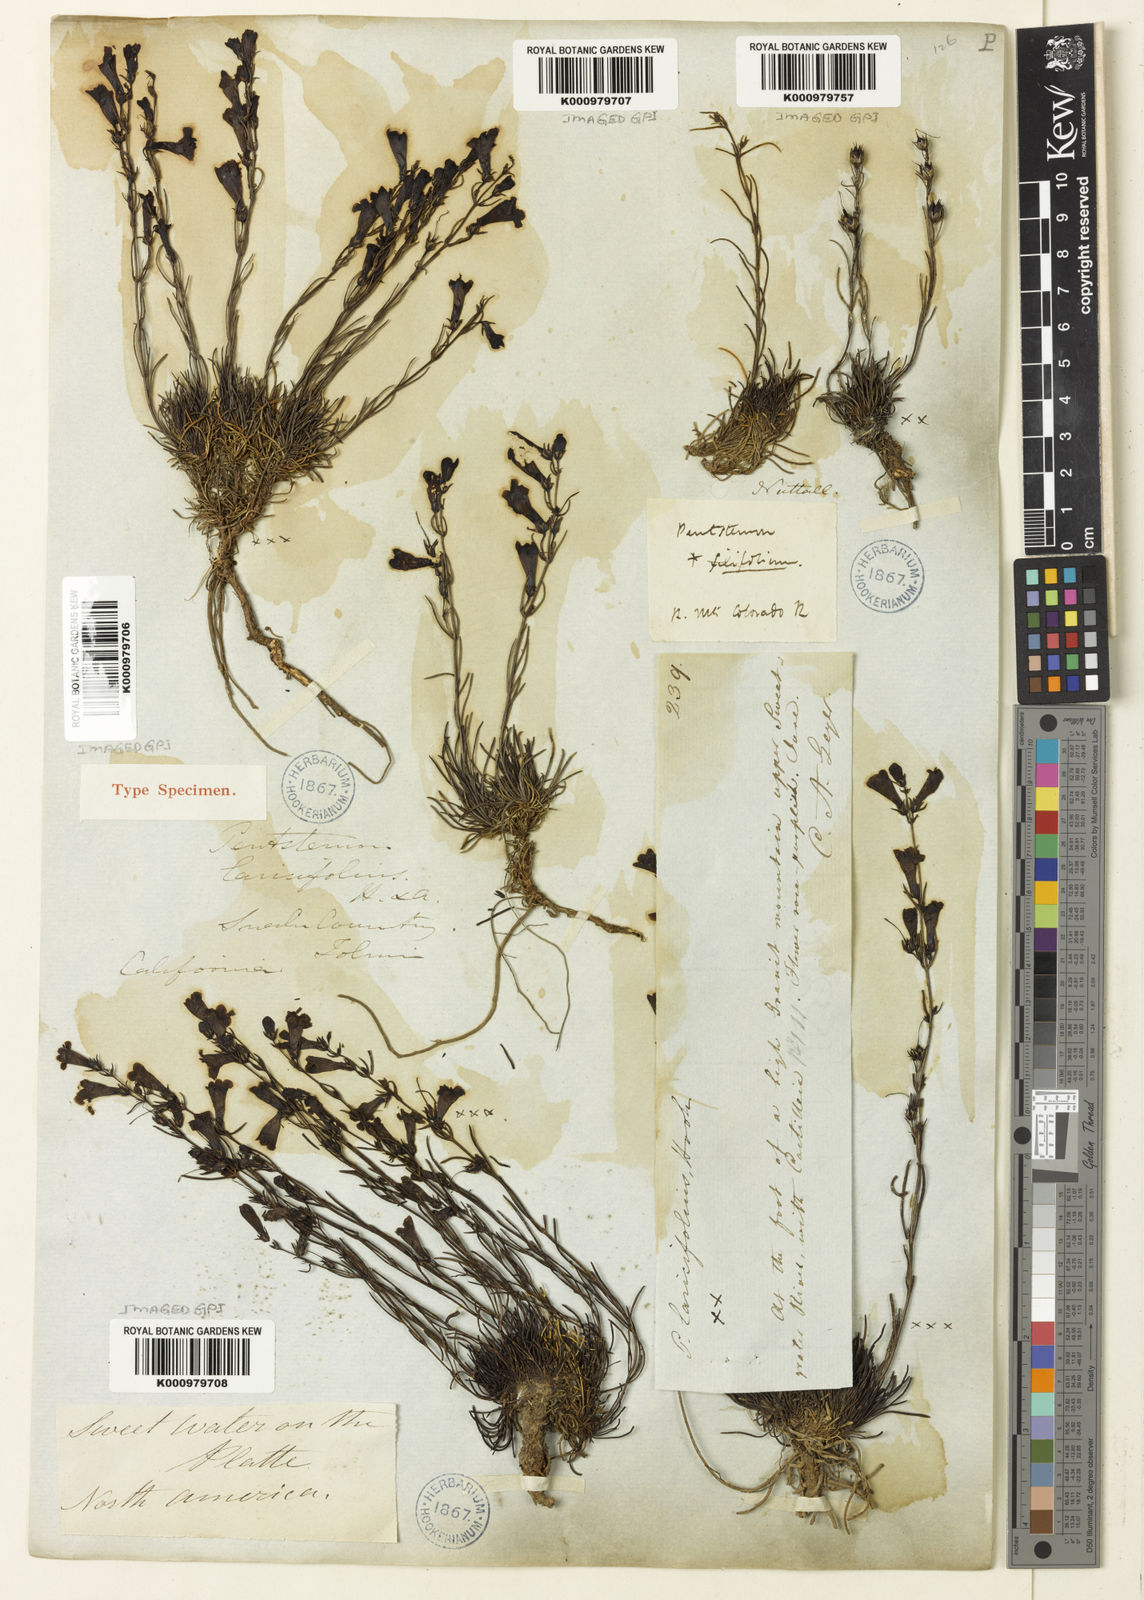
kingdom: Plantae
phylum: Tracheophyta
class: Magnoliopsida
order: Lamiales
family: Plantaginaceae
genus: Penstemon
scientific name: Penstemon laricifolius
